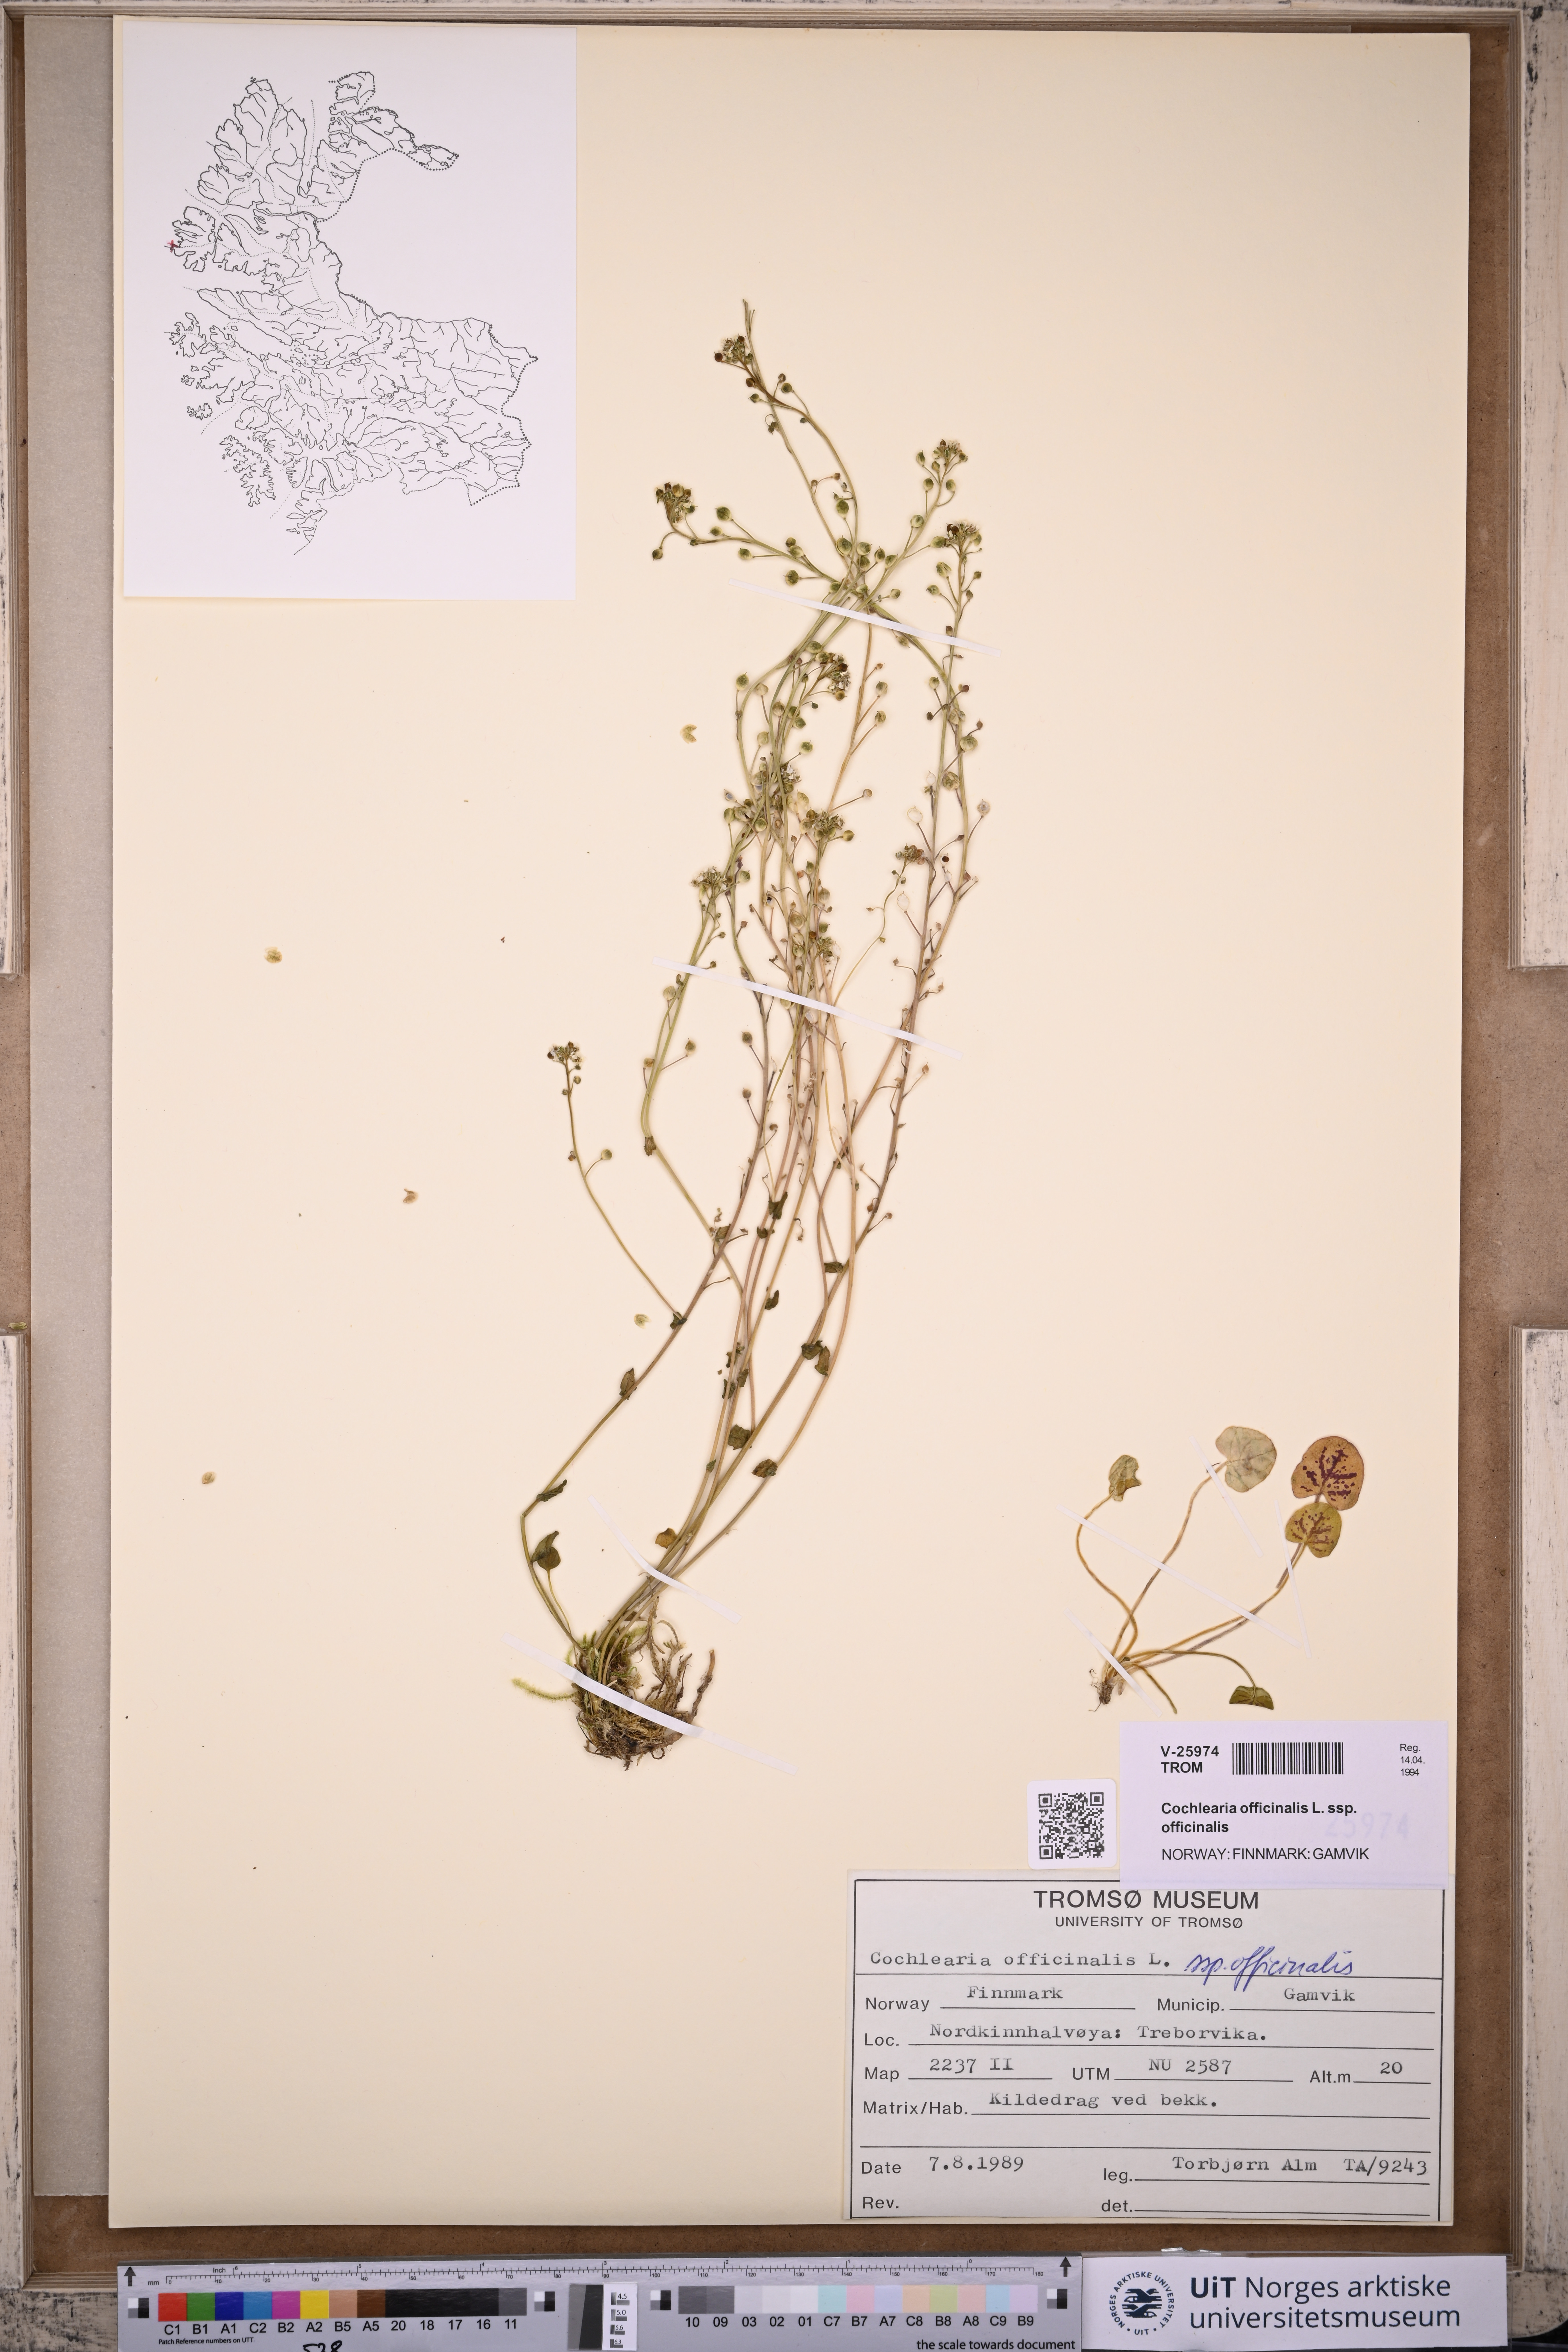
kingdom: Plantae
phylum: Tracheophyta
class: Magnoliopsida
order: Brassicales
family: Brassicaceae
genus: Cochlearia
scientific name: Cochlearia officinalis
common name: Scurvy-grass
